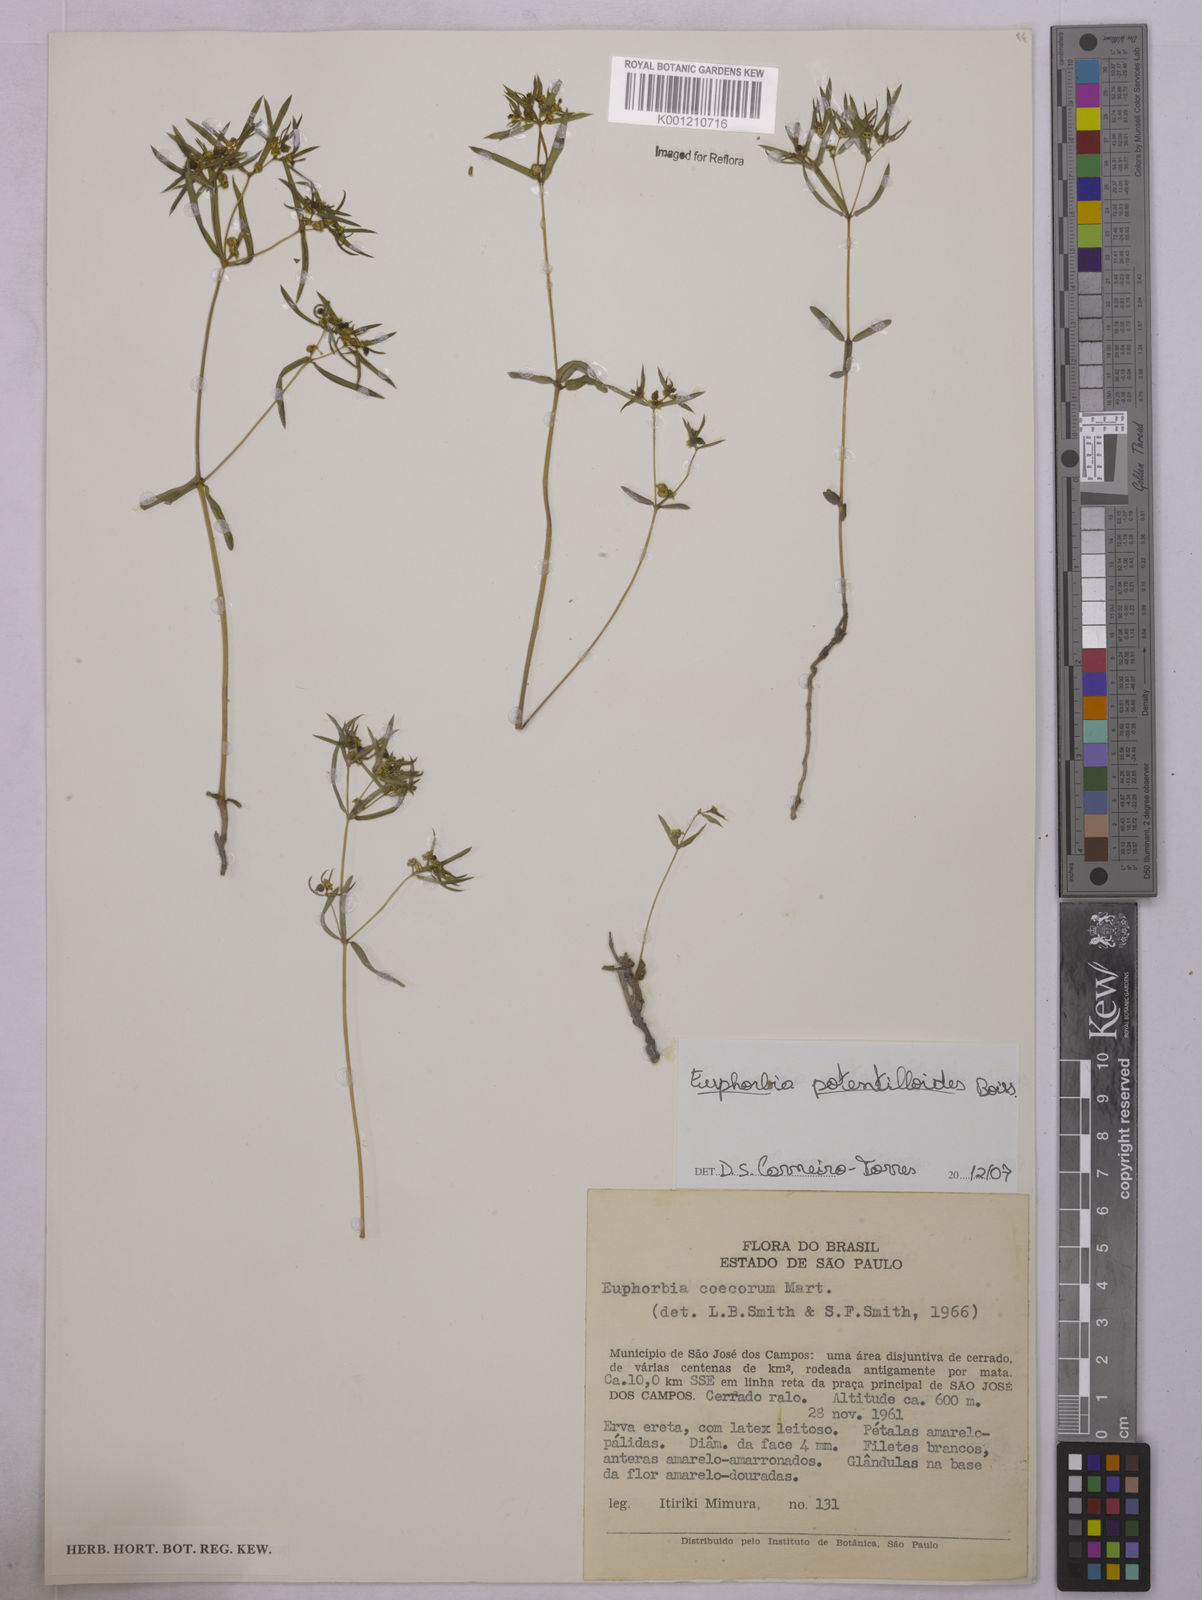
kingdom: Plantae
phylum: Tracheophyta
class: Magnoliopsida
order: Malpighiales
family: Euphorbiaceae
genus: Euphorbia
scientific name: Euphorbia potentilloides
